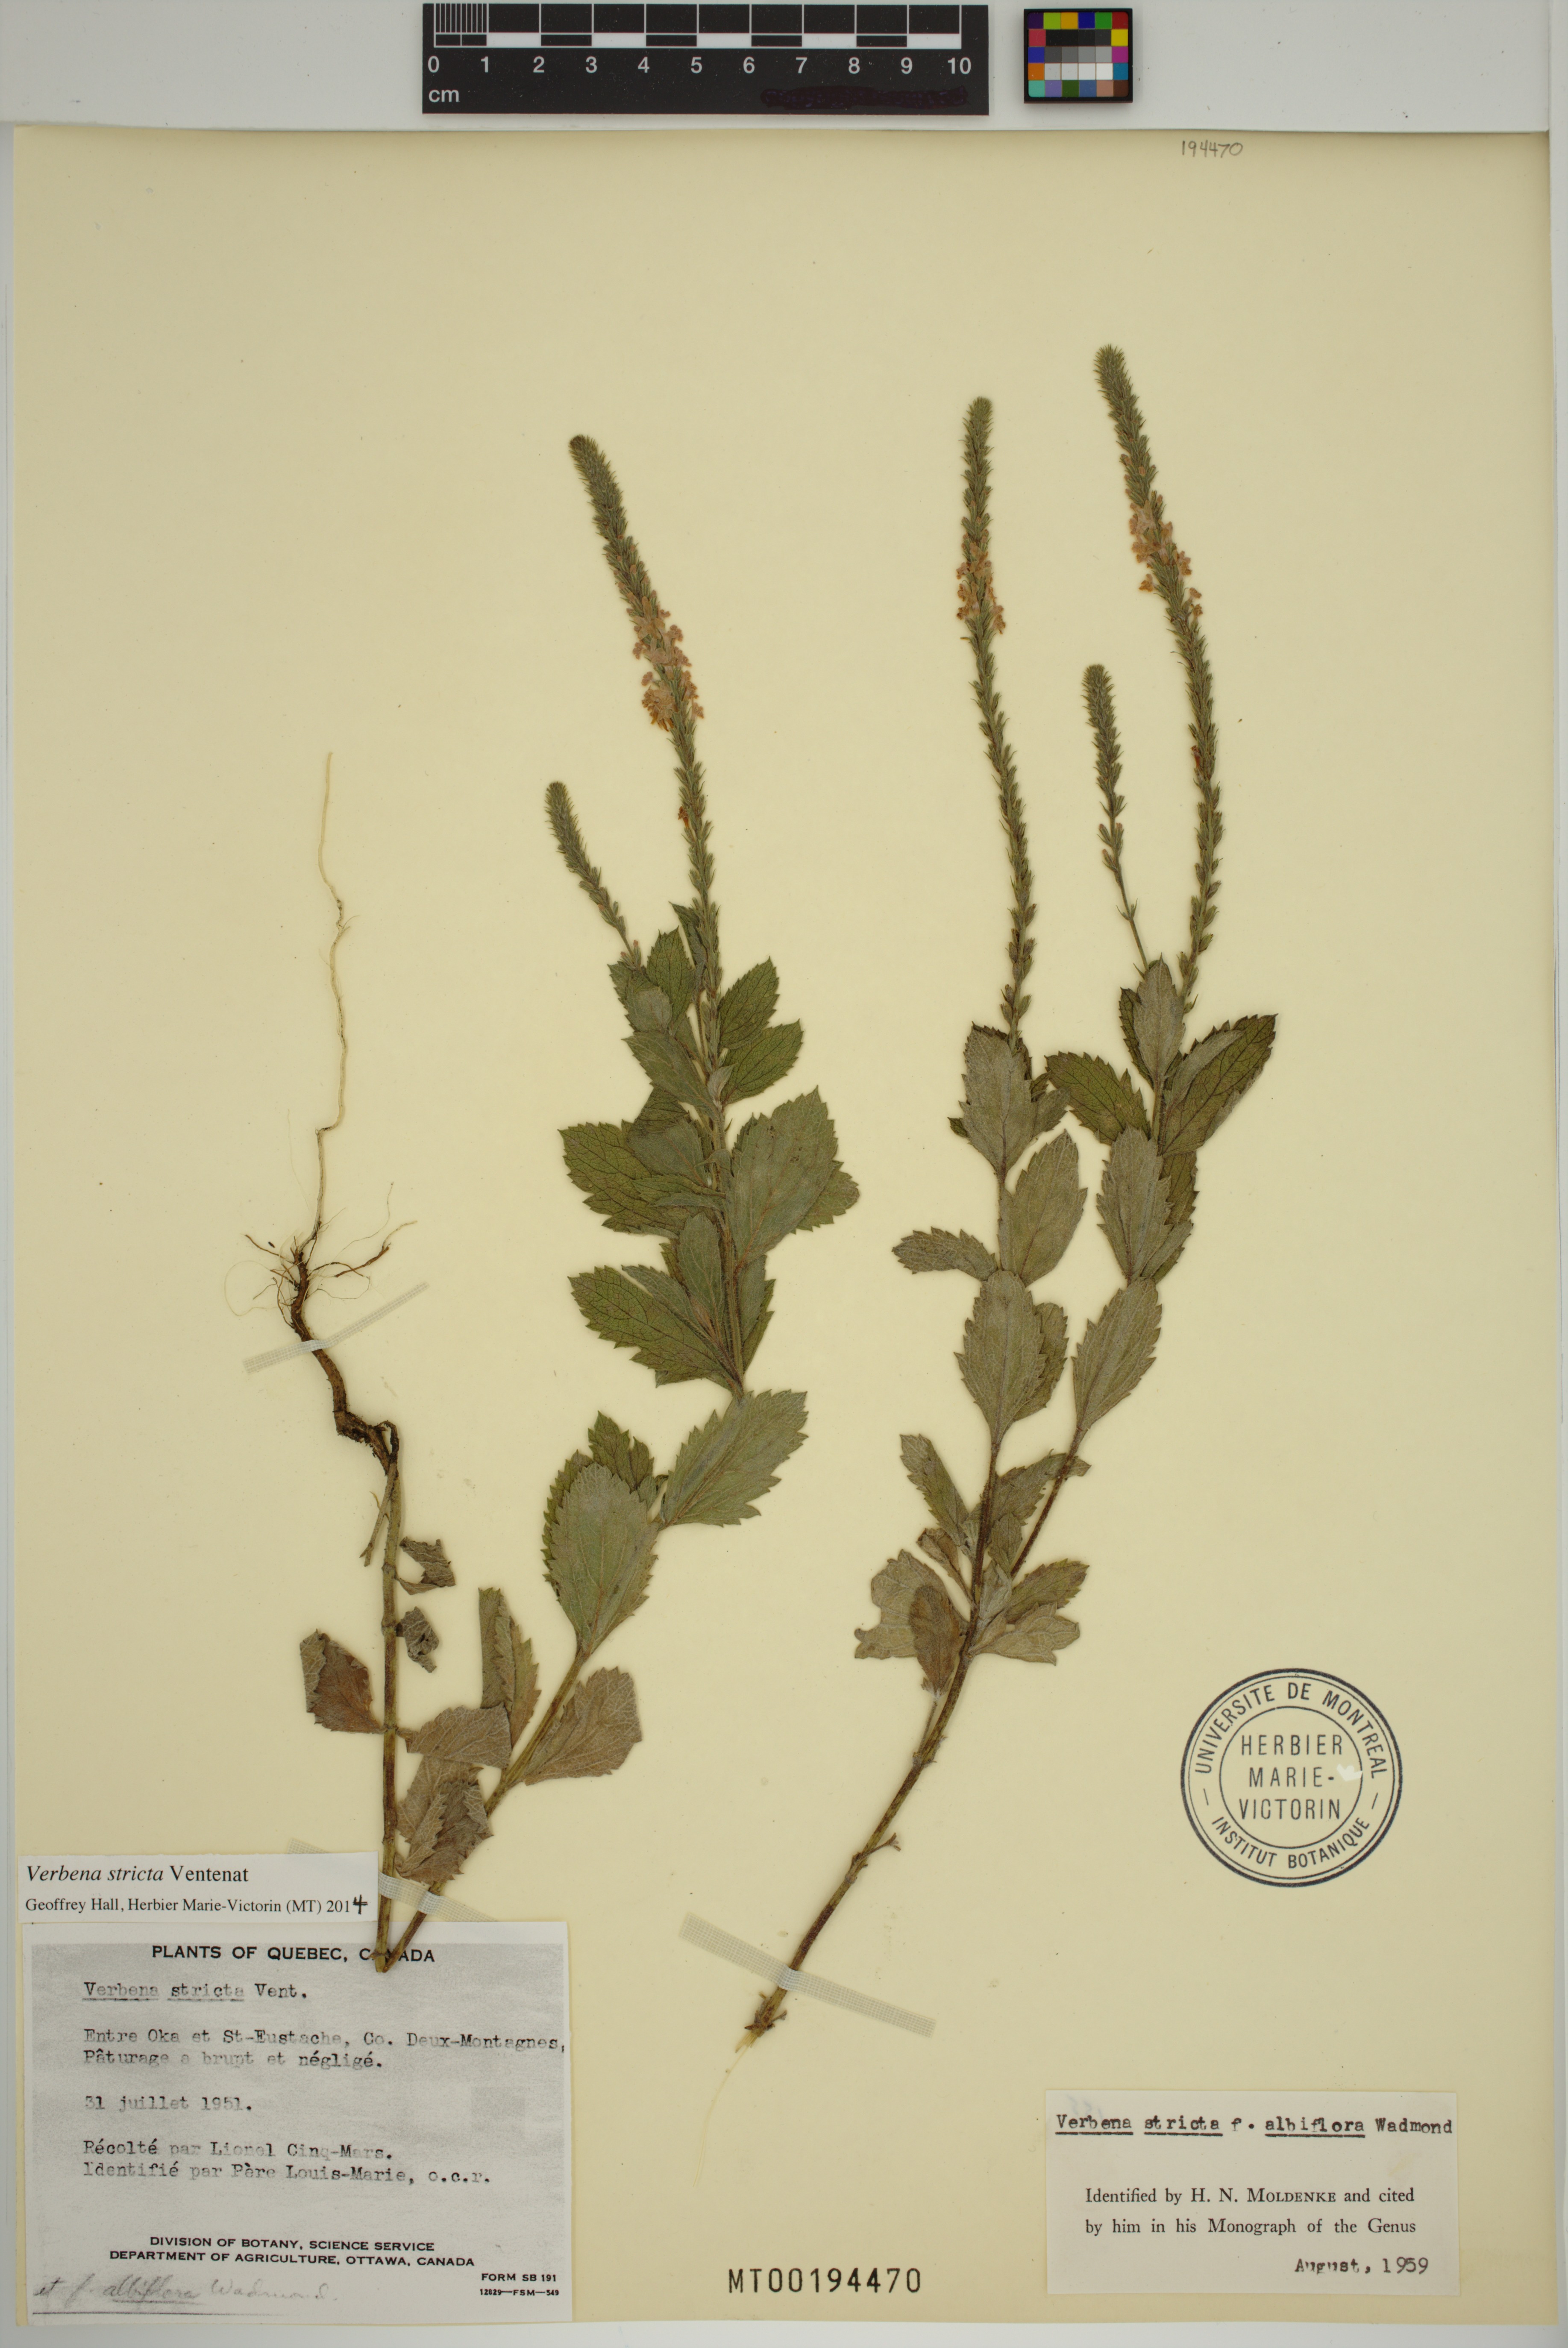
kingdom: Plantae
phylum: Tracheophyta
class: Magnoliopsida
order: Lamiales
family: Verbenaceae
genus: Verbena
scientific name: Verbena stricta
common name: Hoary vervain
